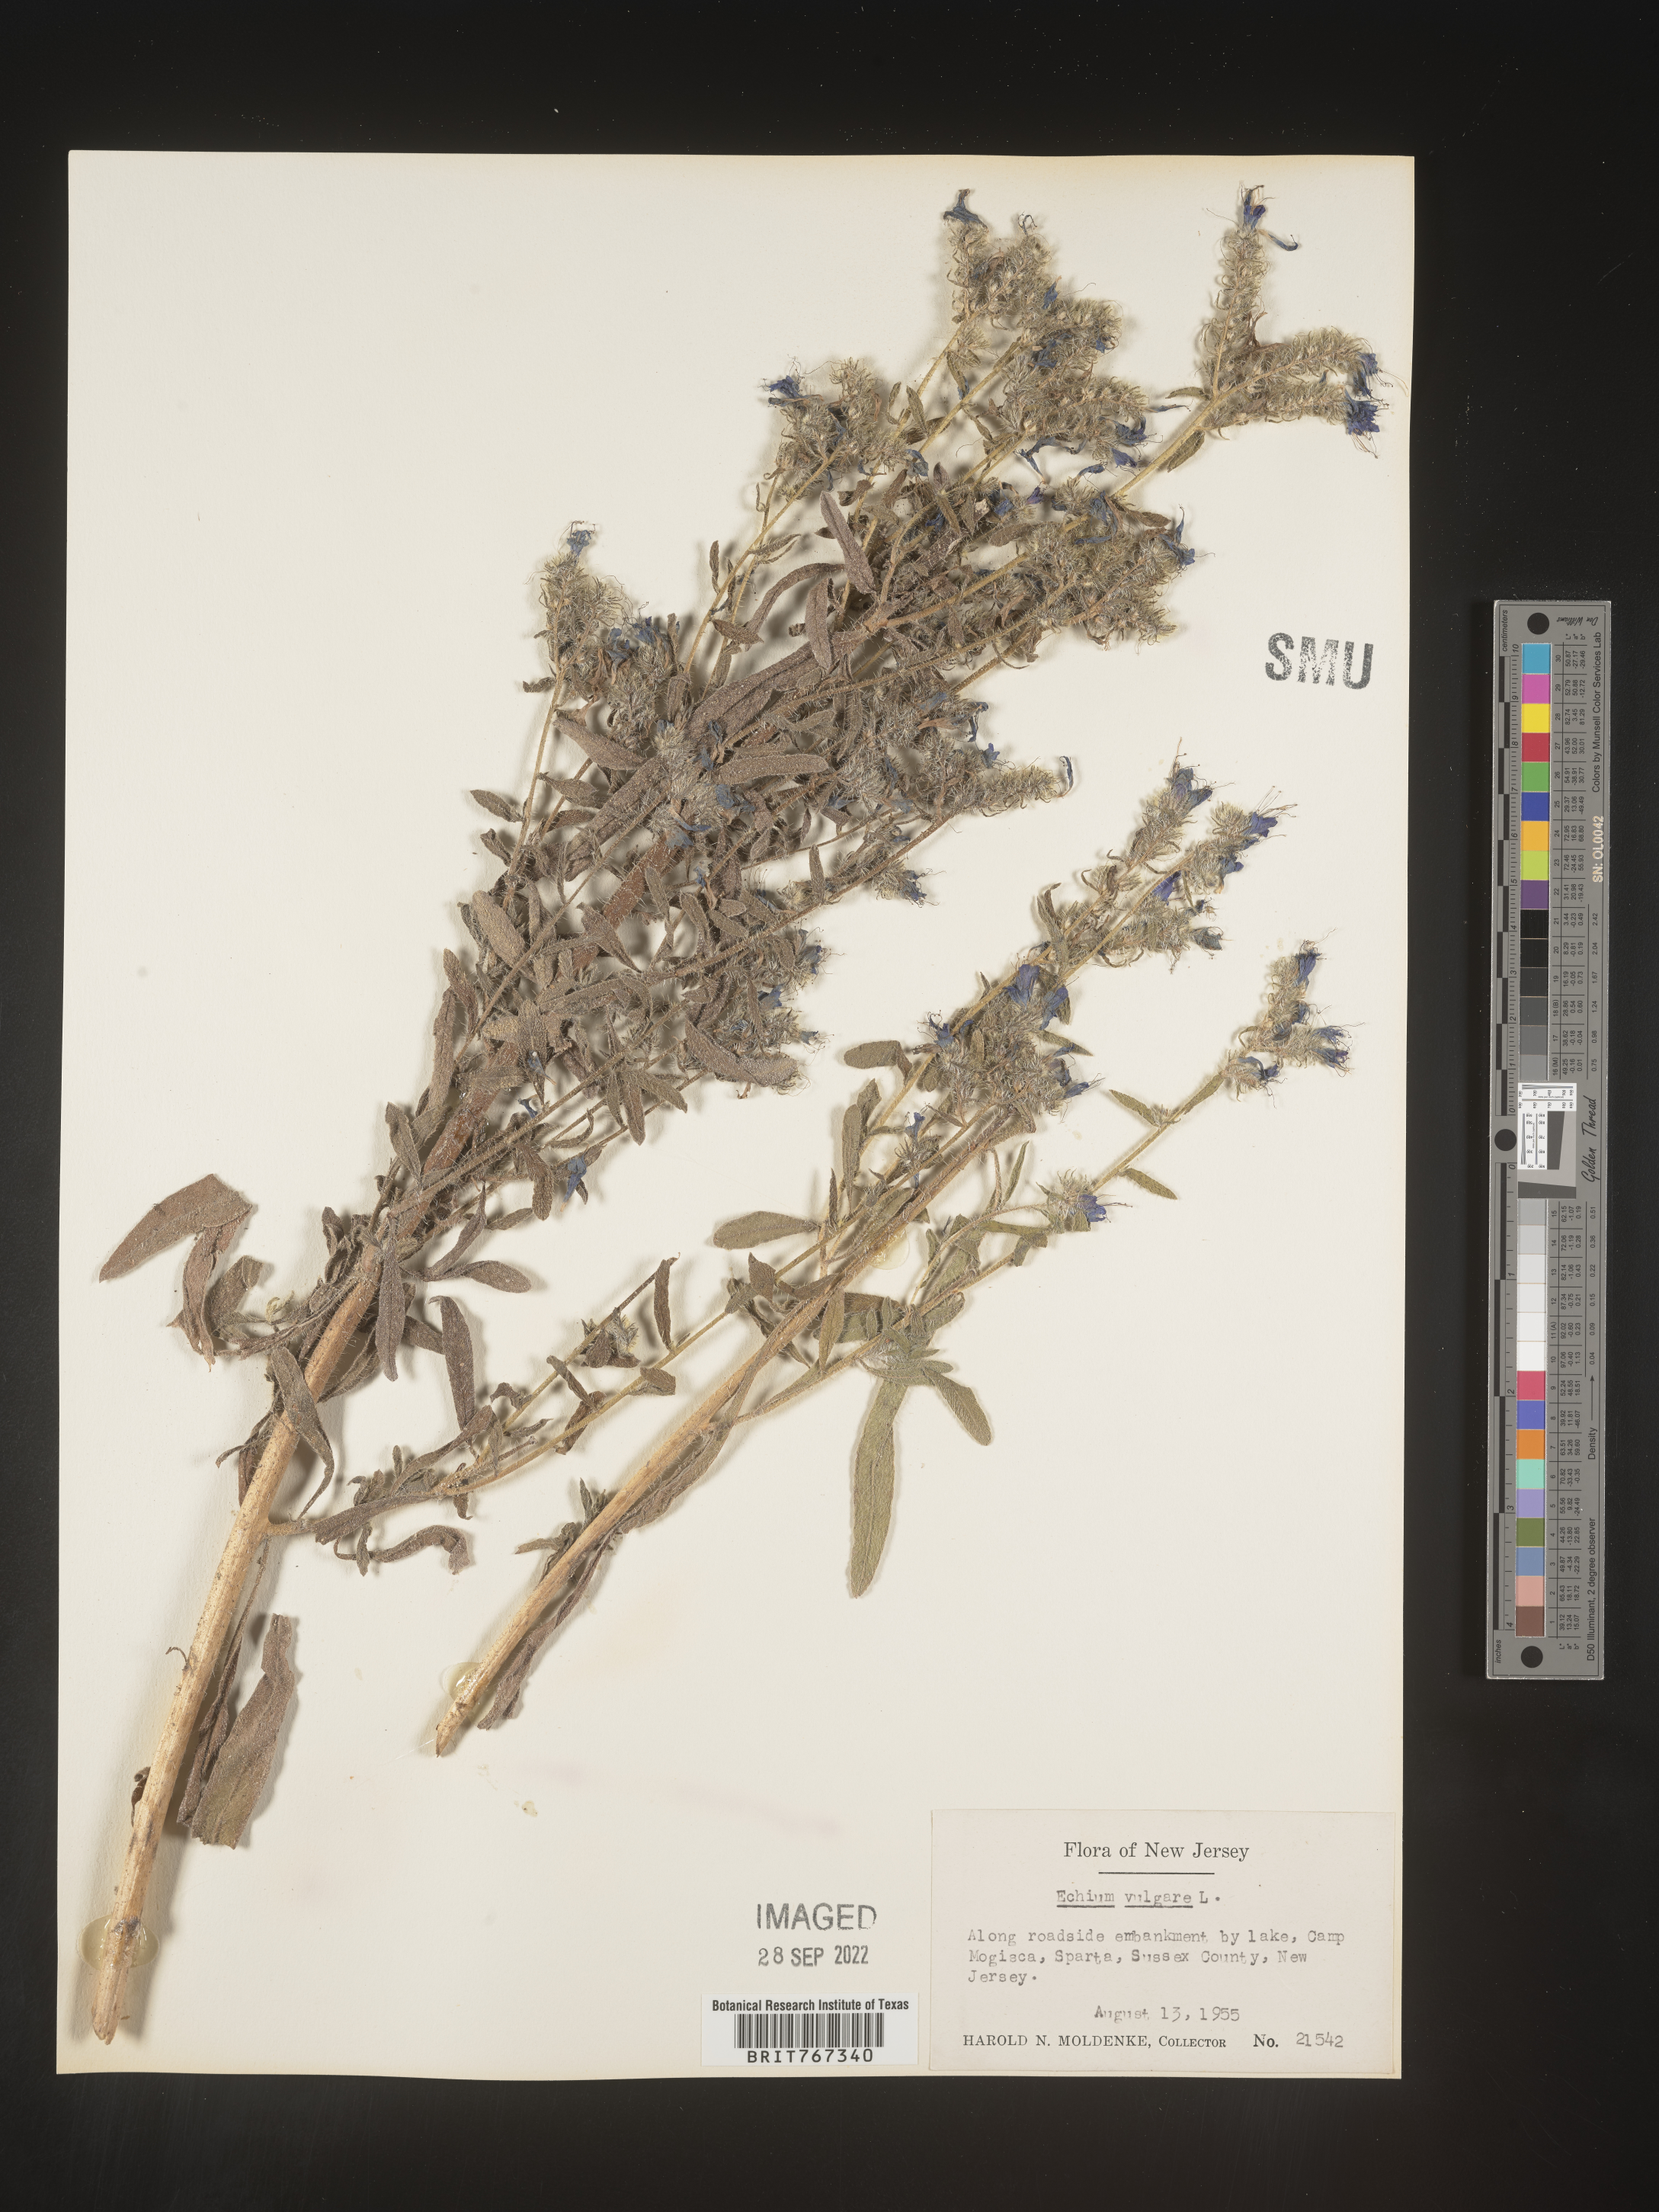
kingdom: Plantae
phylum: Tracheophyta
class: Magnoliopsida
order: Boraginales
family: Boraginaceae
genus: Echium
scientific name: Echium
